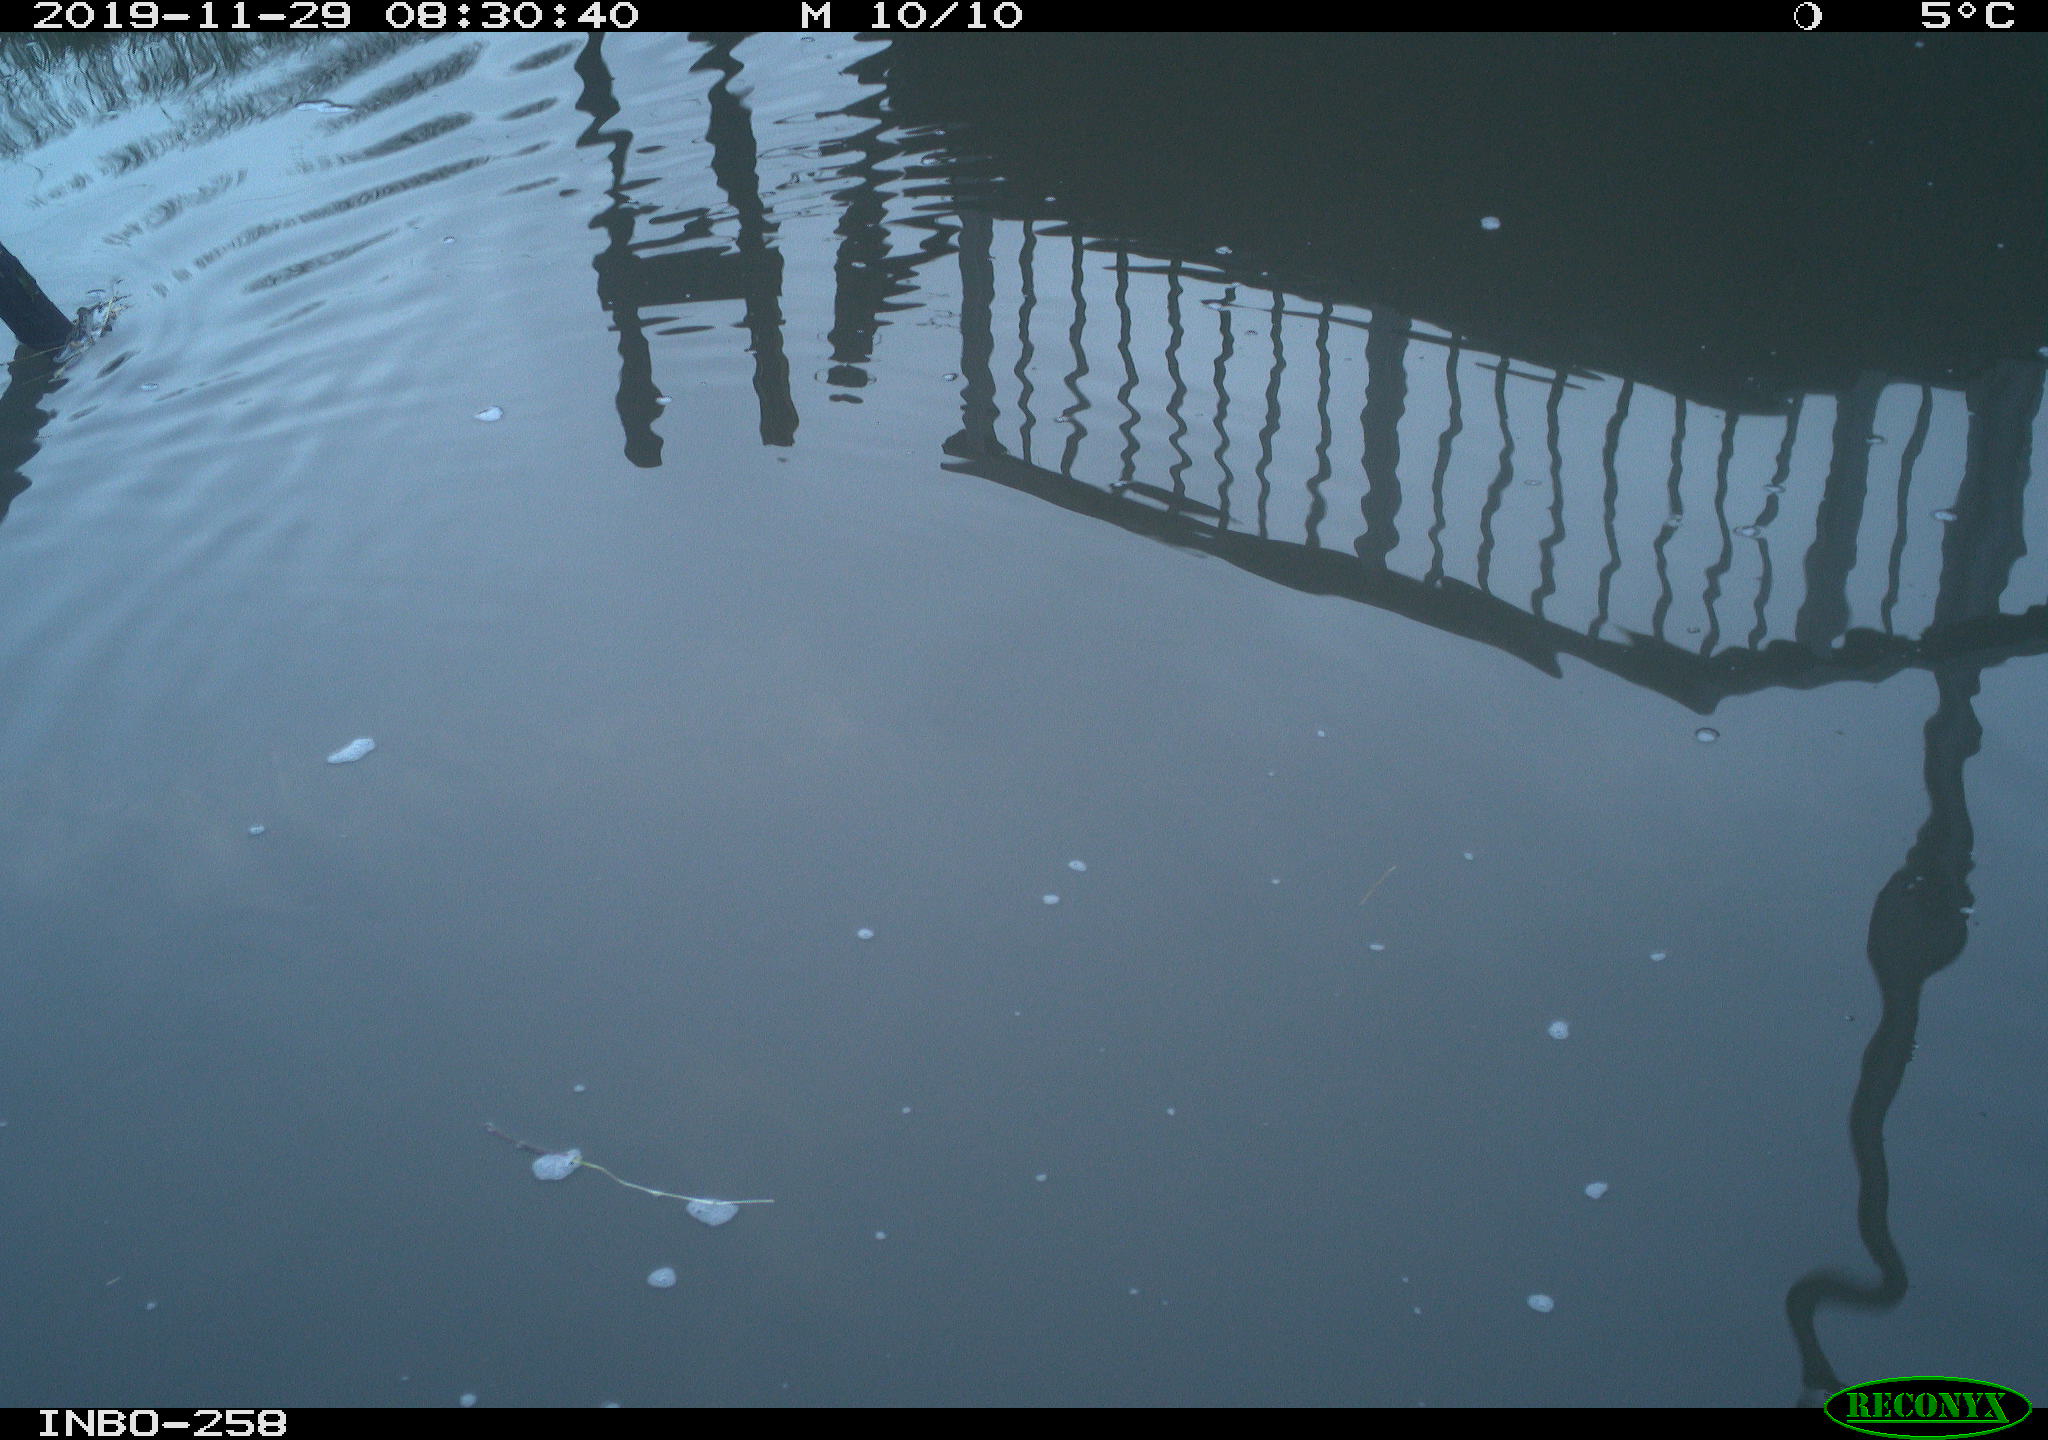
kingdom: Animalia
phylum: Chordata
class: Aves
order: Gruiformes
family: Rallidae
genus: Gallinula
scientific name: Gallinula chloropus
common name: Common moorhen
